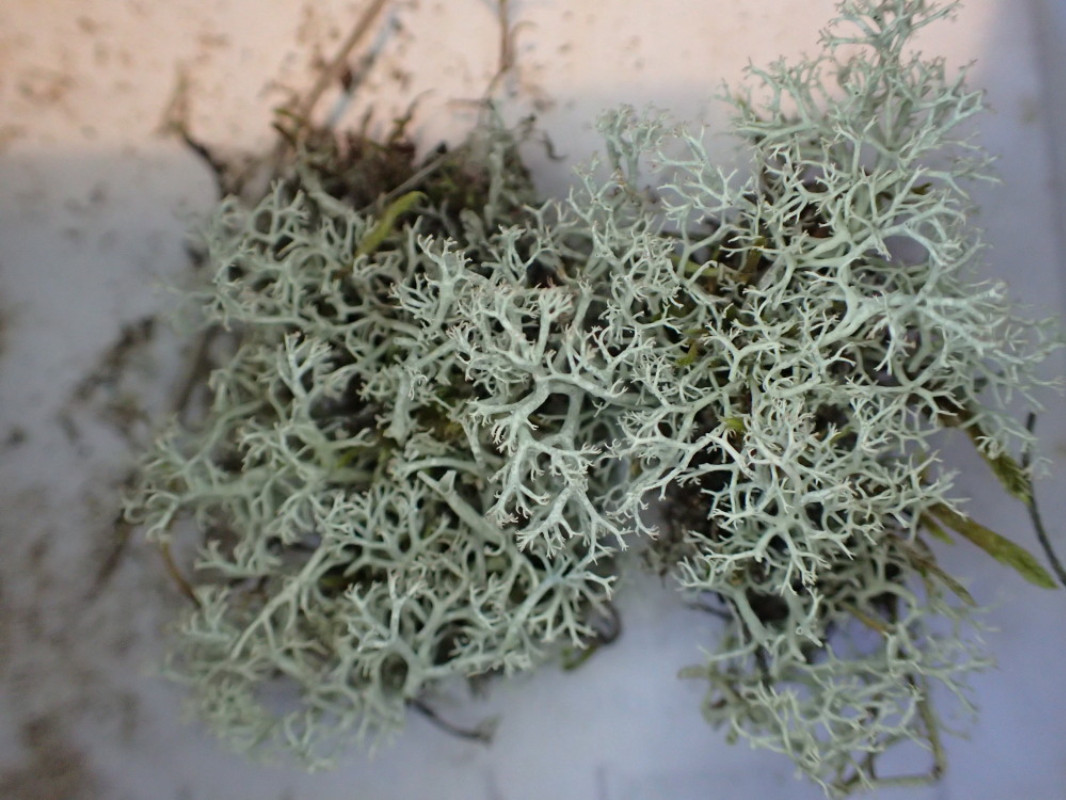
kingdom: Fungi
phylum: Ascomycota
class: Lecanoromycetes
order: Lecanorales
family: Cladoniaceae
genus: Cladonia
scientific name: Cladonia portentosa
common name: hede-rensdyrlav
